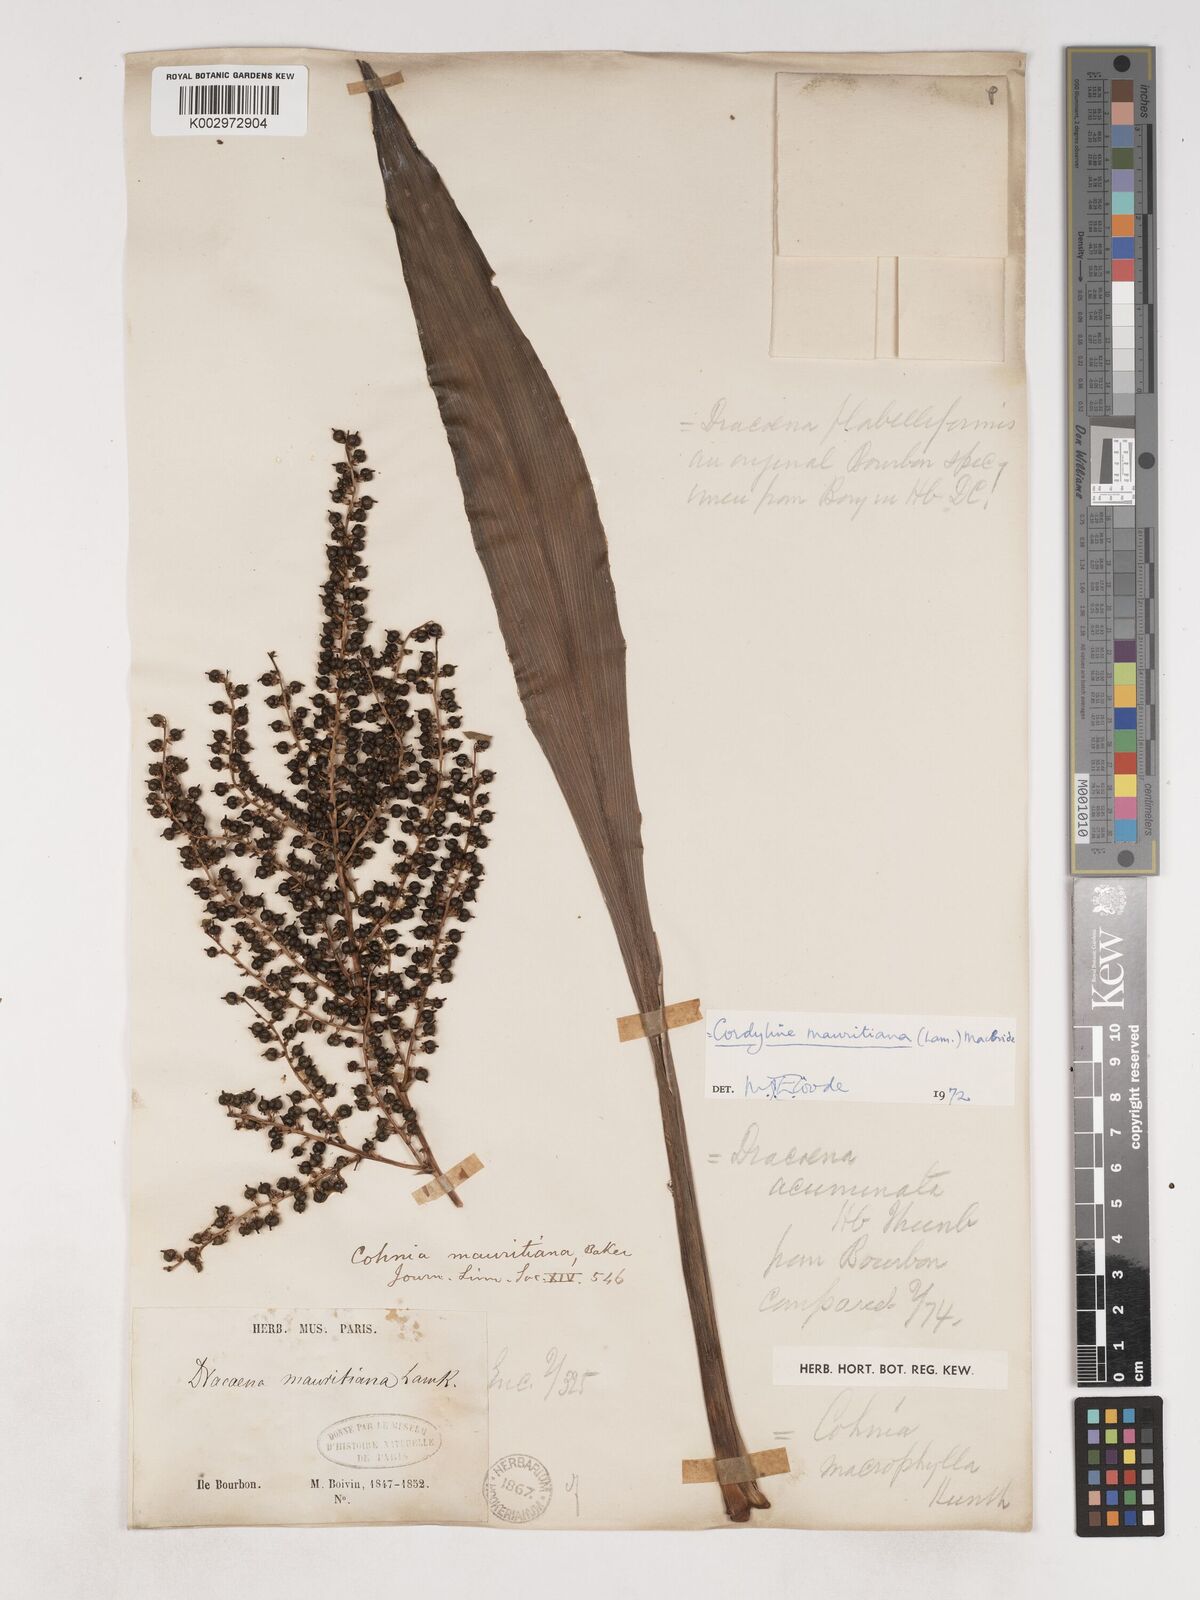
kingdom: Plantae
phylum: Tracheophyta
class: Liliopsida
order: Asparagales
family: Asparagaceae
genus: Cordyline
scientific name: Cordyline mauritiana
